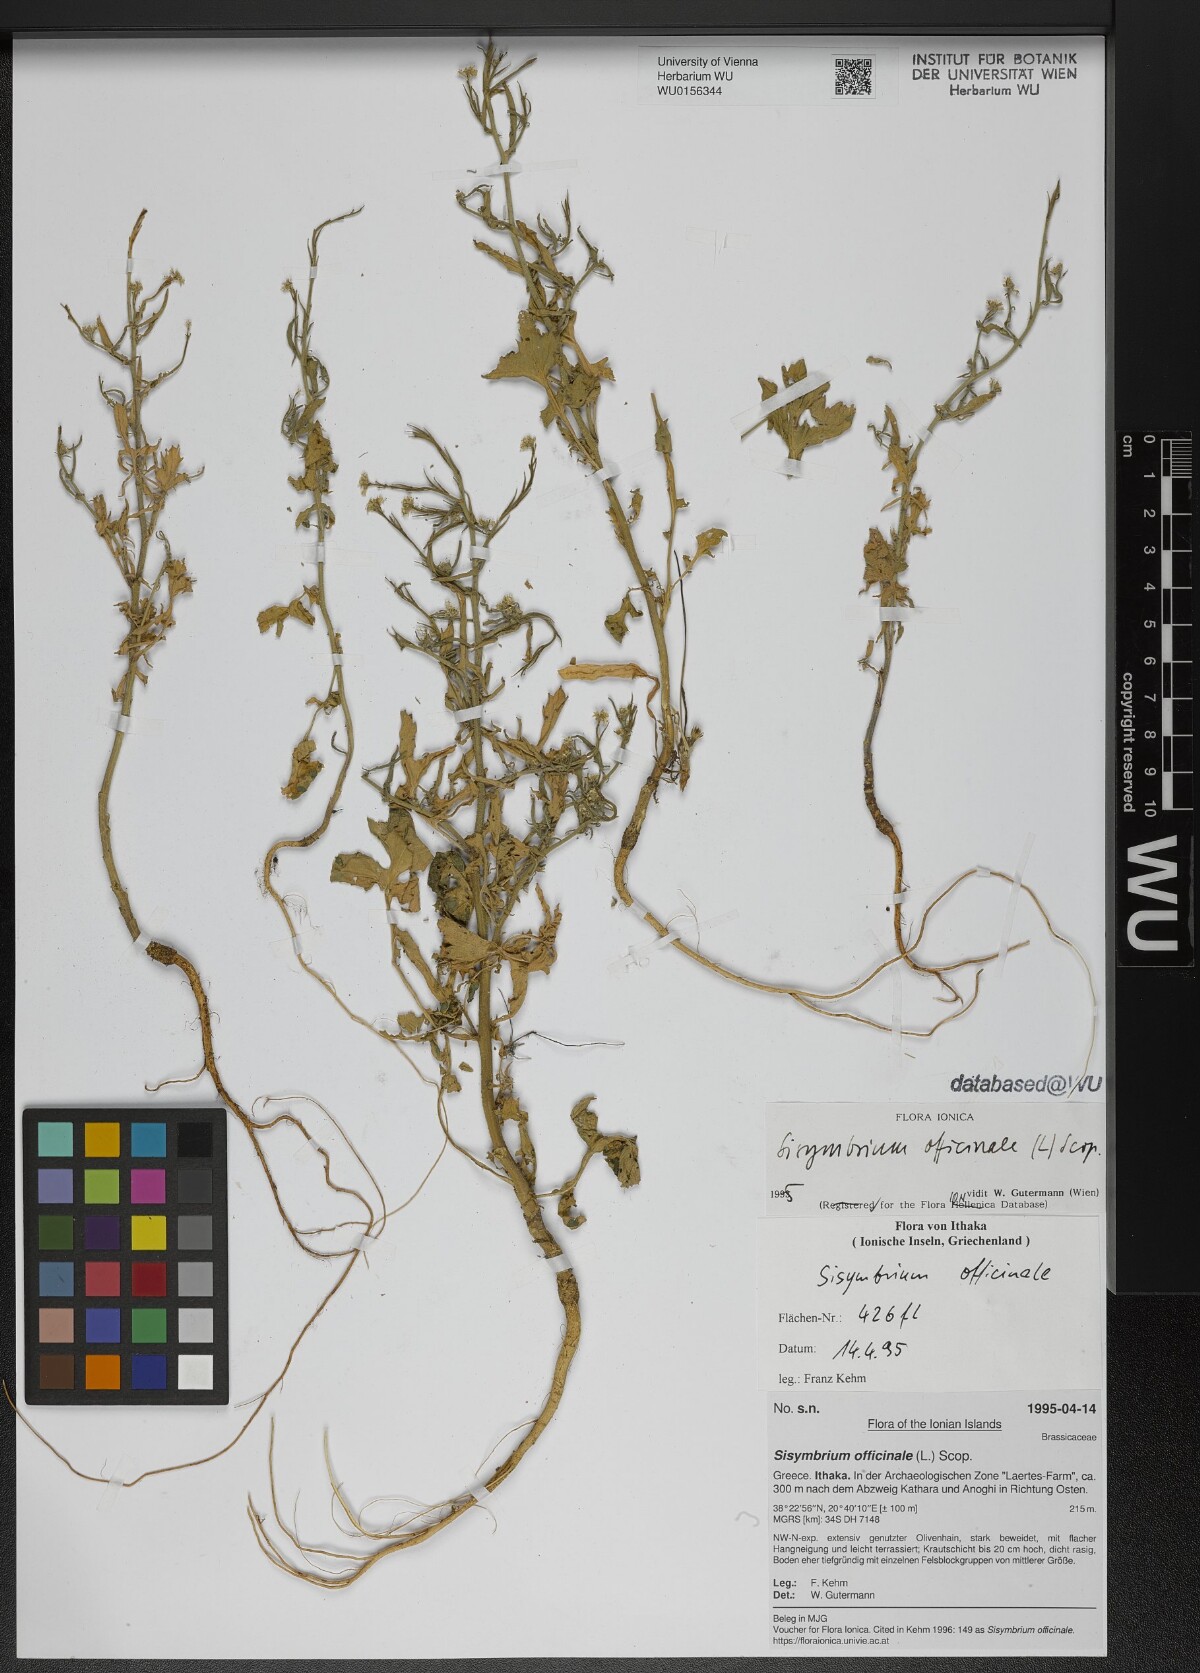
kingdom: Plantae
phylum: Tracheophyta
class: Magnoliopsida
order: Brassicales
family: Brassicaceae
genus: Sisymbrium
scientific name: Sisymbrium officinale
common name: Hedge mustard
